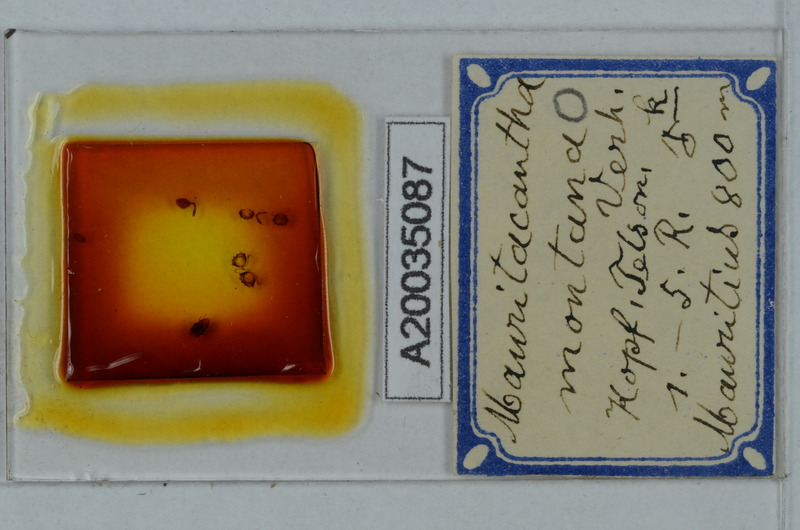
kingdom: Animalia
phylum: Arthropoda
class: Diplopoda
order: Polydesmida
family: Trichopolydesmidae
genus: Mauritacantha
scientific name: Mauritacantha montana
